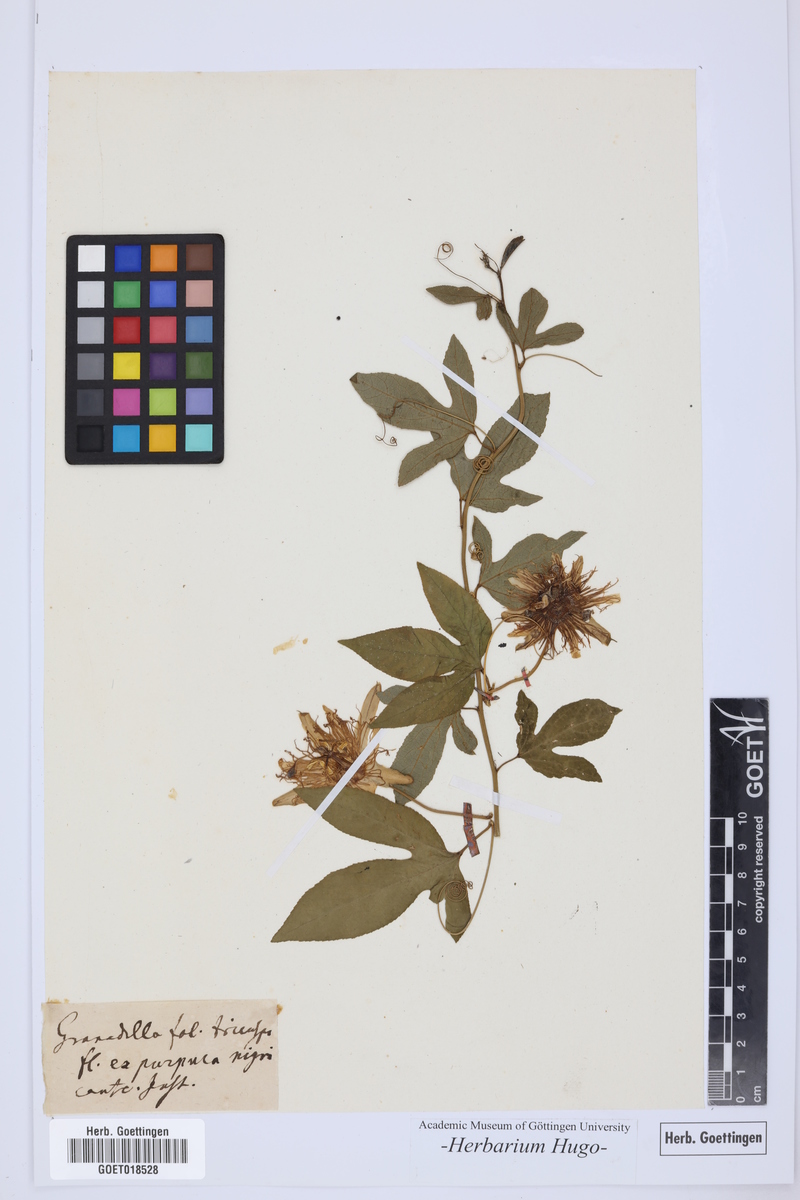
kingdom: Plantae
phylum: Tracheophyta
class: Magnoliopsida
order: Malpighiales
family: Passifloraceae
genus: Granadilla
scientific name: Granadilla
